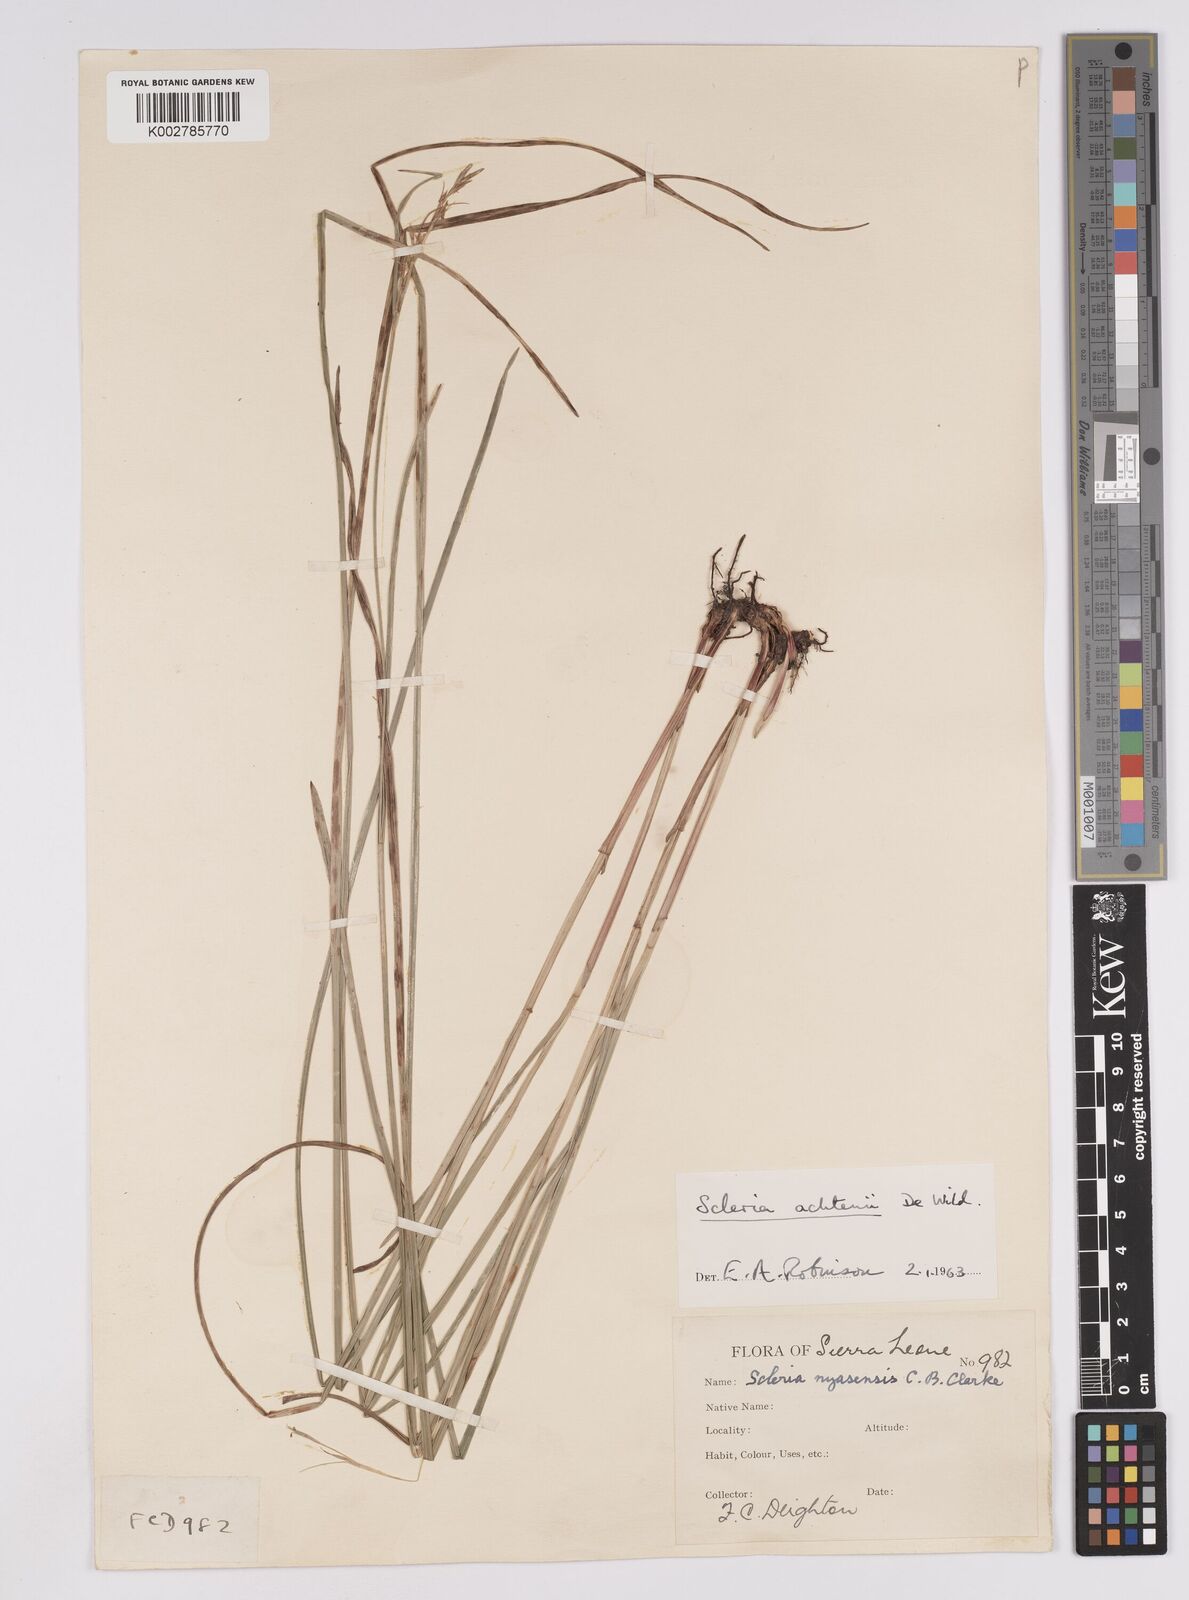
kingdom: Plantae
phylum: Tracheophyta
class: Liliopsida
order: Poales
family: Cyperaceae
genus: Scleria
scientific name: Scleria achtenii
